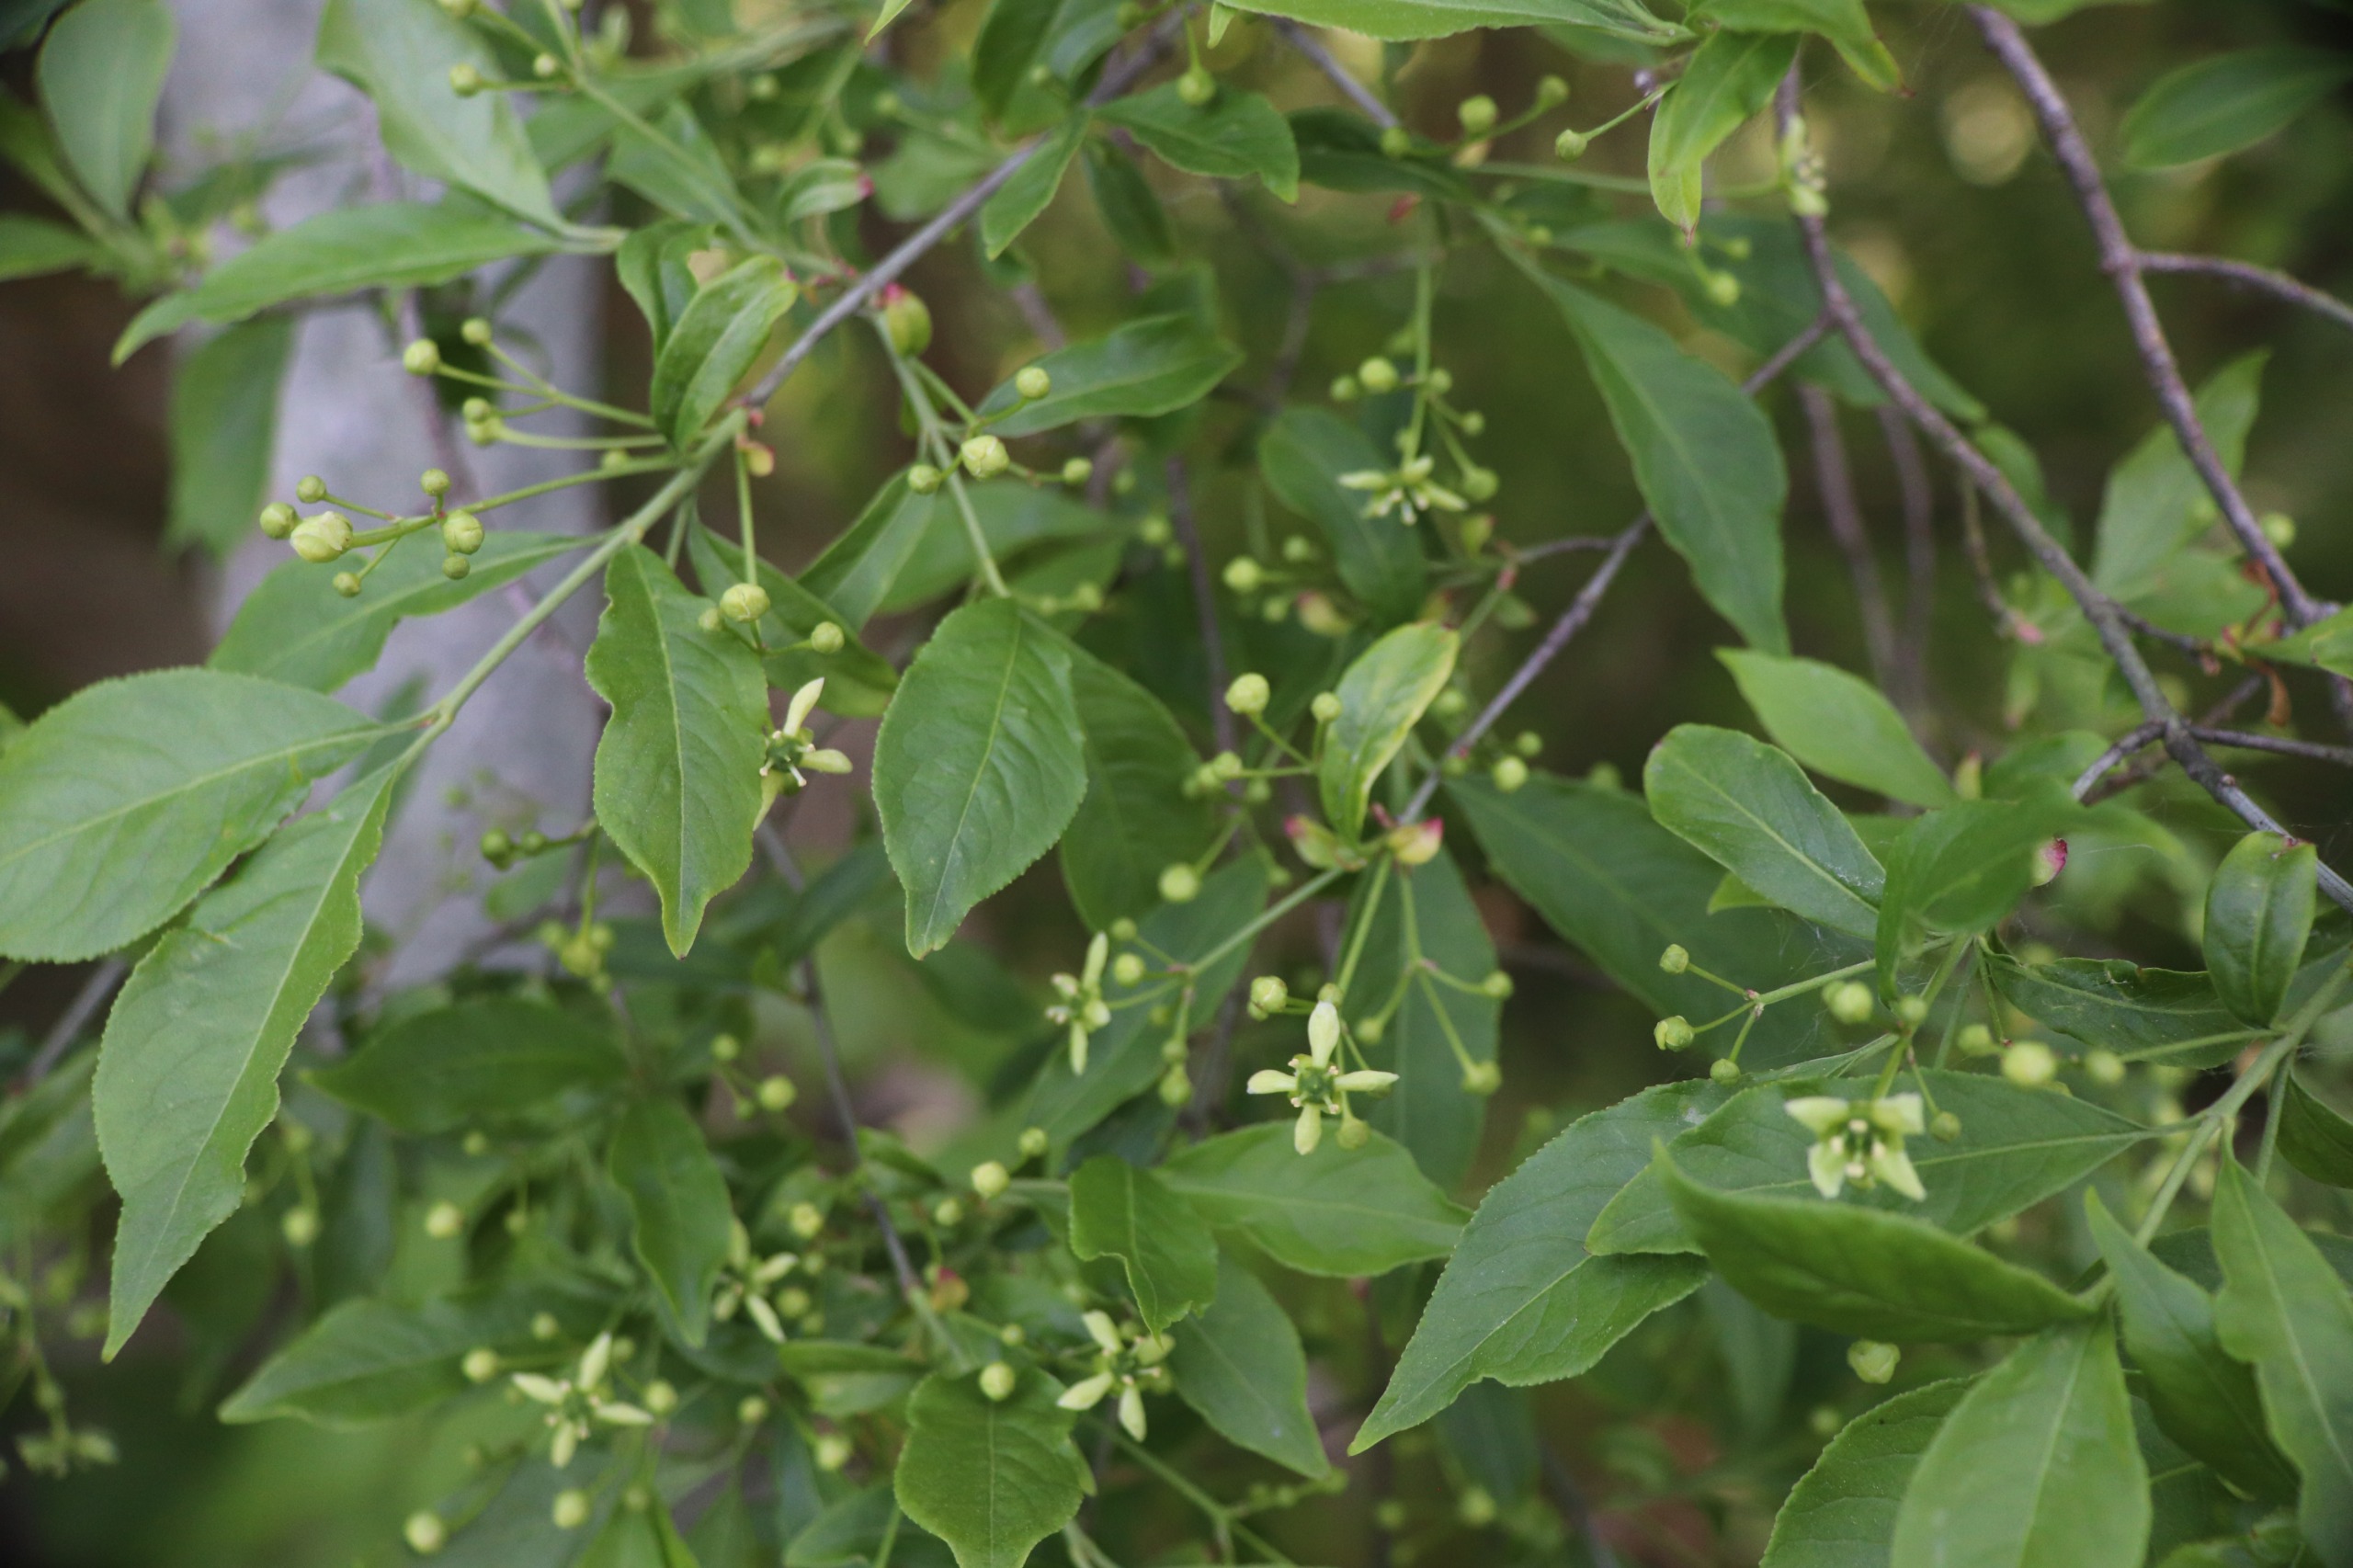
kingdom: Plantae
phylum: Tracheophyta
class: Magnoliopsida
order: Celastrales
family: Celastraceae
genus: Euonymus
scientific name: Euonymus europaeus
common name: Benved
